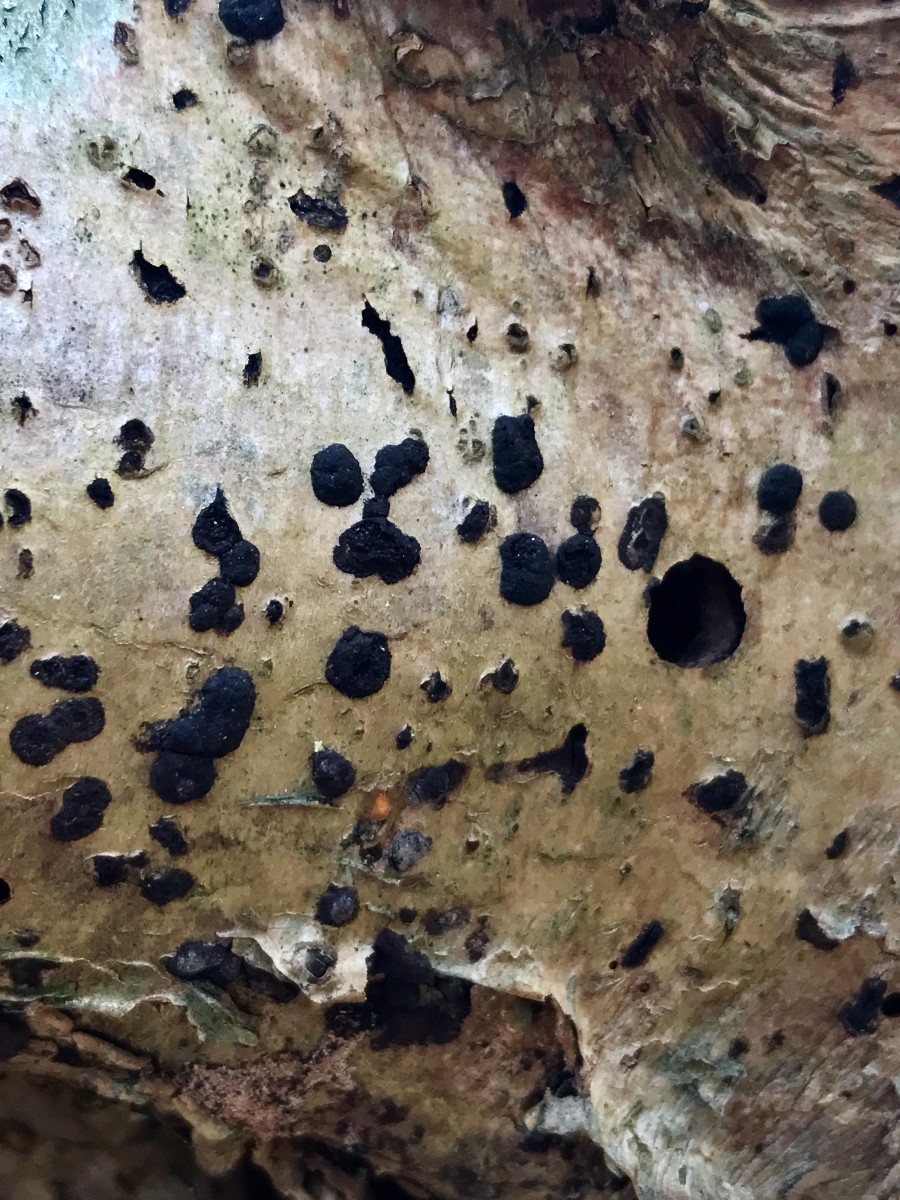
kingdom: Fungi
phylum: Ascomycota
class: Sordariomycetes
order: Xylariales
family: Hypoxylaceae
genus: Hypoxylon
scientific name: Hypoxylon fuscum
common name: kegleformet kulbær
